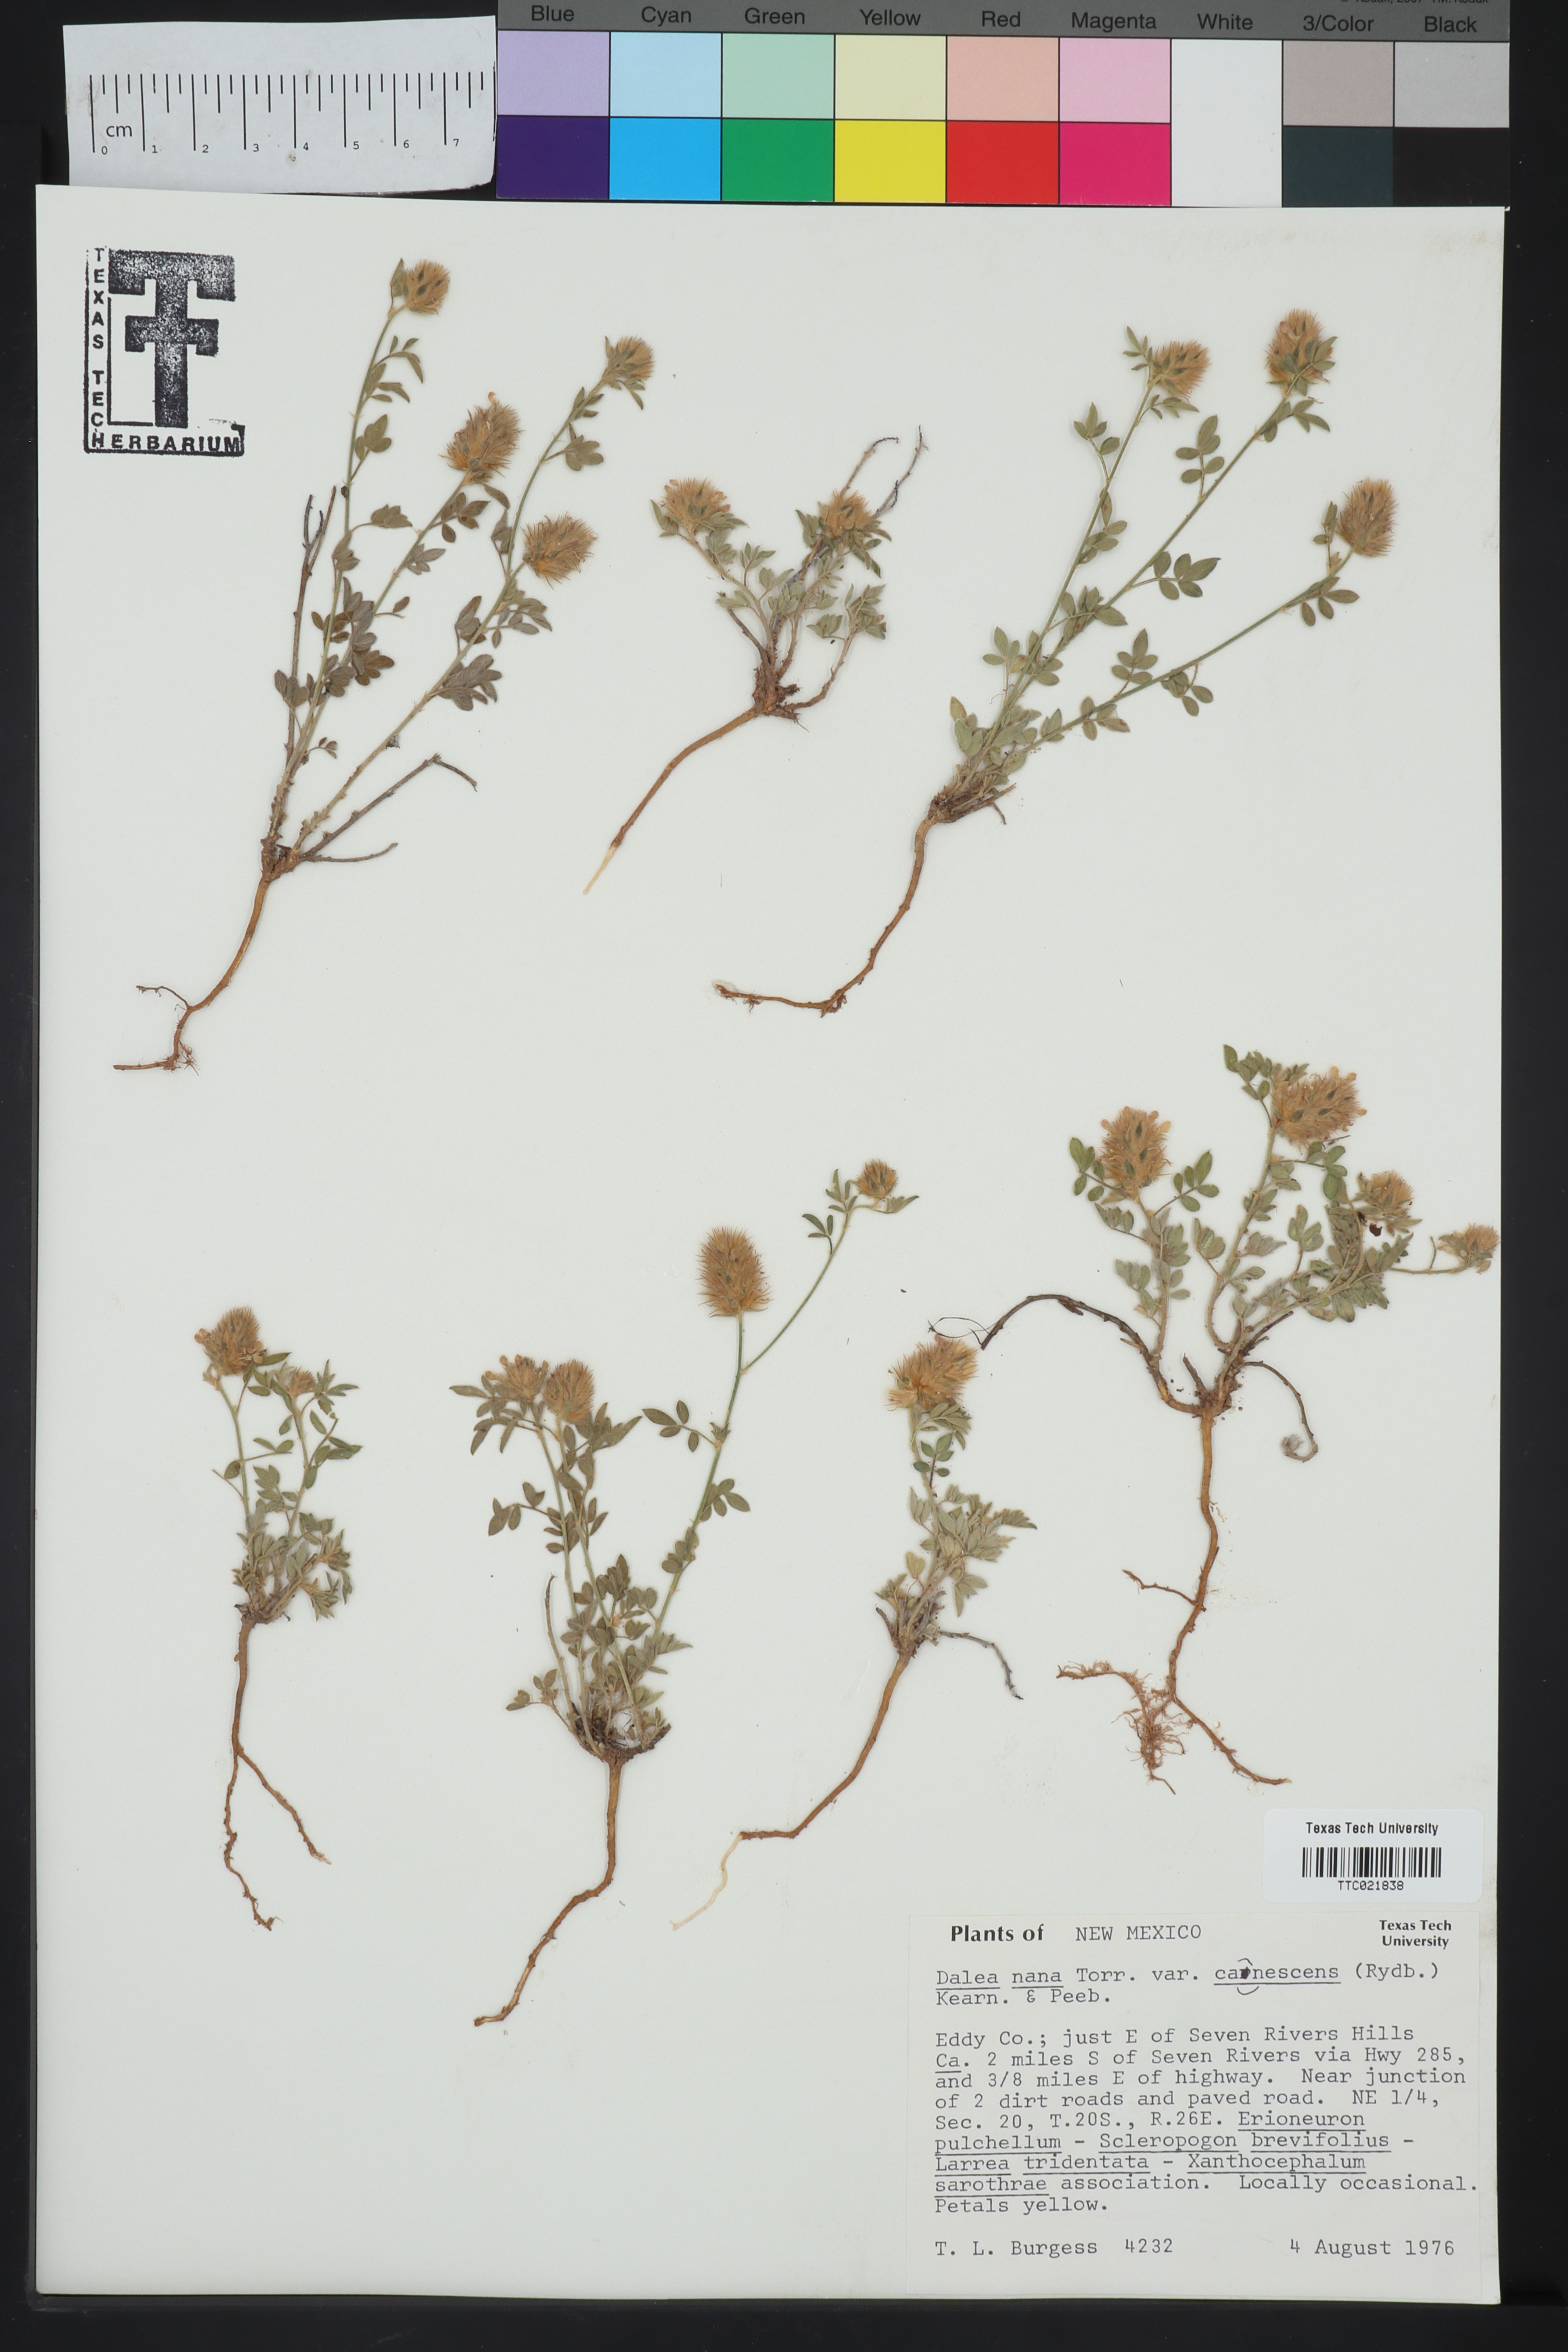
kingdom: Plantae
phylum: Tracheophyta
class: Magnoliopsida
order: Fabales
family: Fabaceae
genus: Dalea
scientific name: Dalea rubescens
